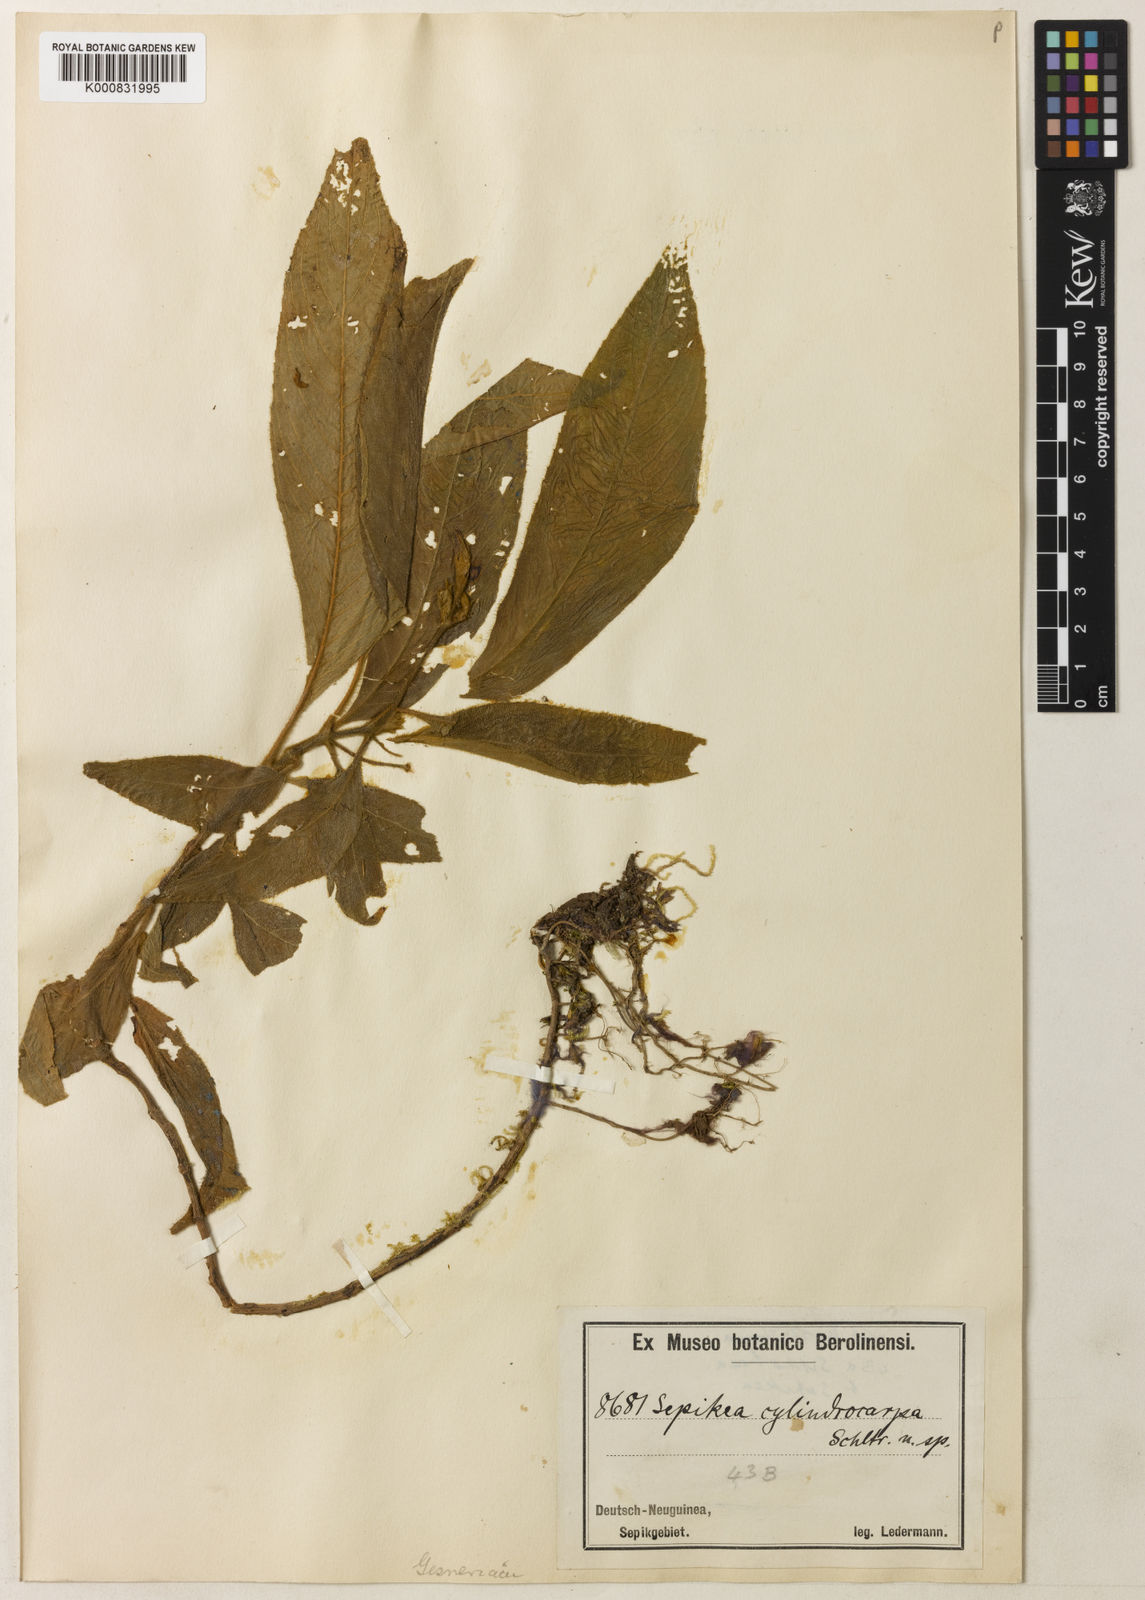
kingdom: Plantae
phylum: Tracheophyta
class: Magnoliopsida
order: Lamiales
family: Gesneriaceae
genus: Sepikea
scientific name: Sepikea cylindrocarpa
